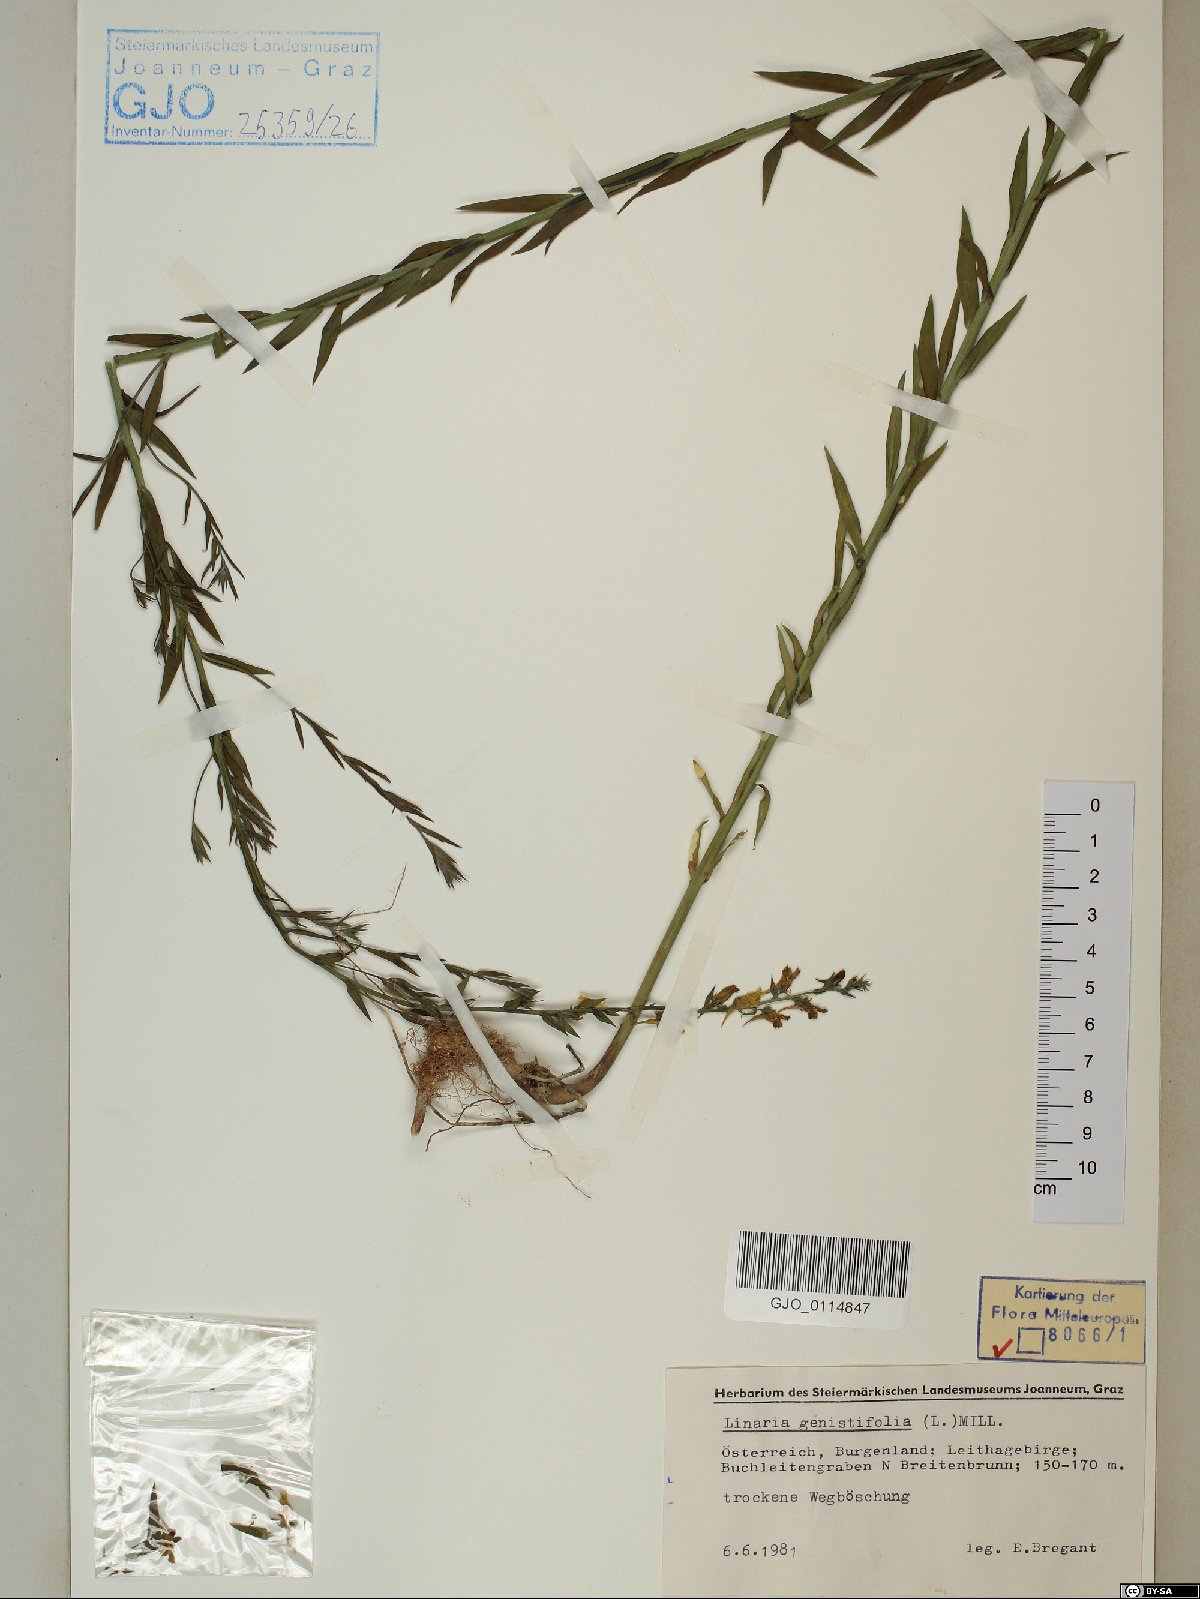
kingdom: Plantae
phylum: Tracheophyta
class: Magnoliopsida
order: Lamiales
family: Plantaginaceae
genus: Linaria
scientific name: Linaria genistifolia
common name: Broomleaf toadflax
